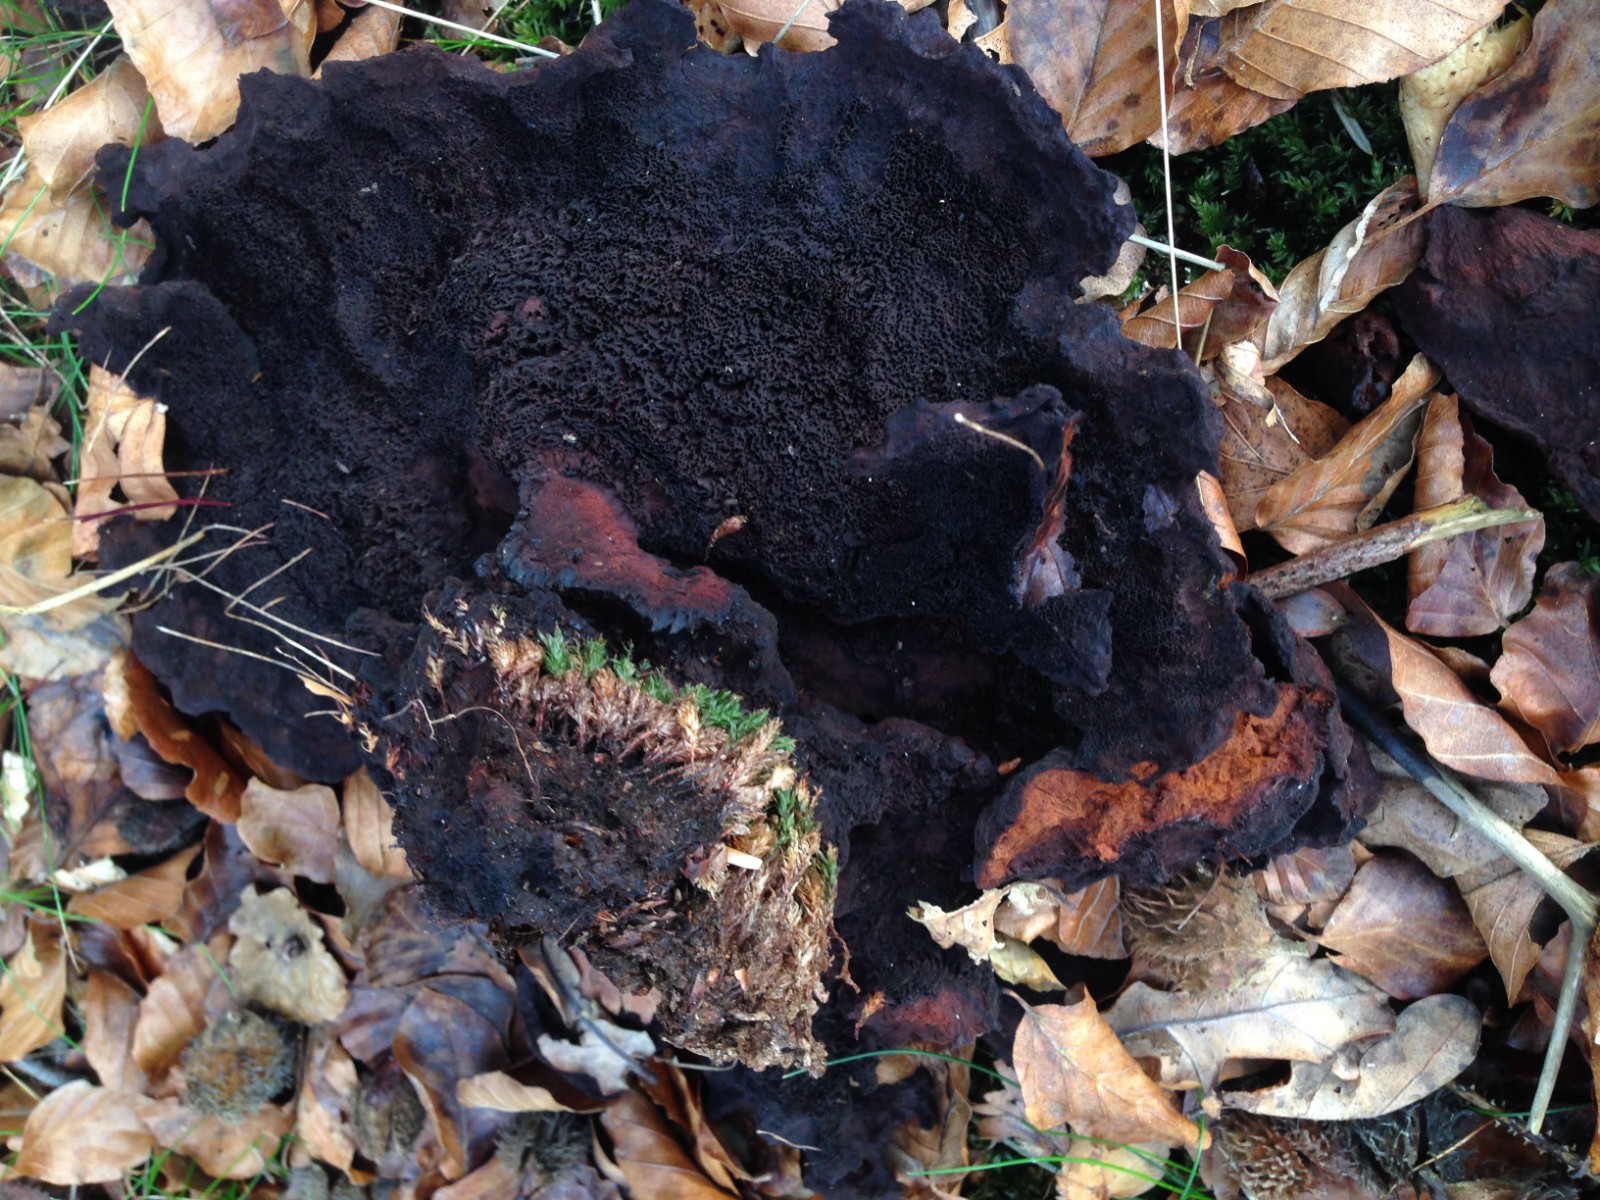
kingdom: Fungi
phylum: Basidiomycota
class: Agaricomycetes
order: Polyporales
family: Laetiporaceae
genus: Phaeolus
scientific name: Phaeolus schweinitzii
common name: brunporesvamp
